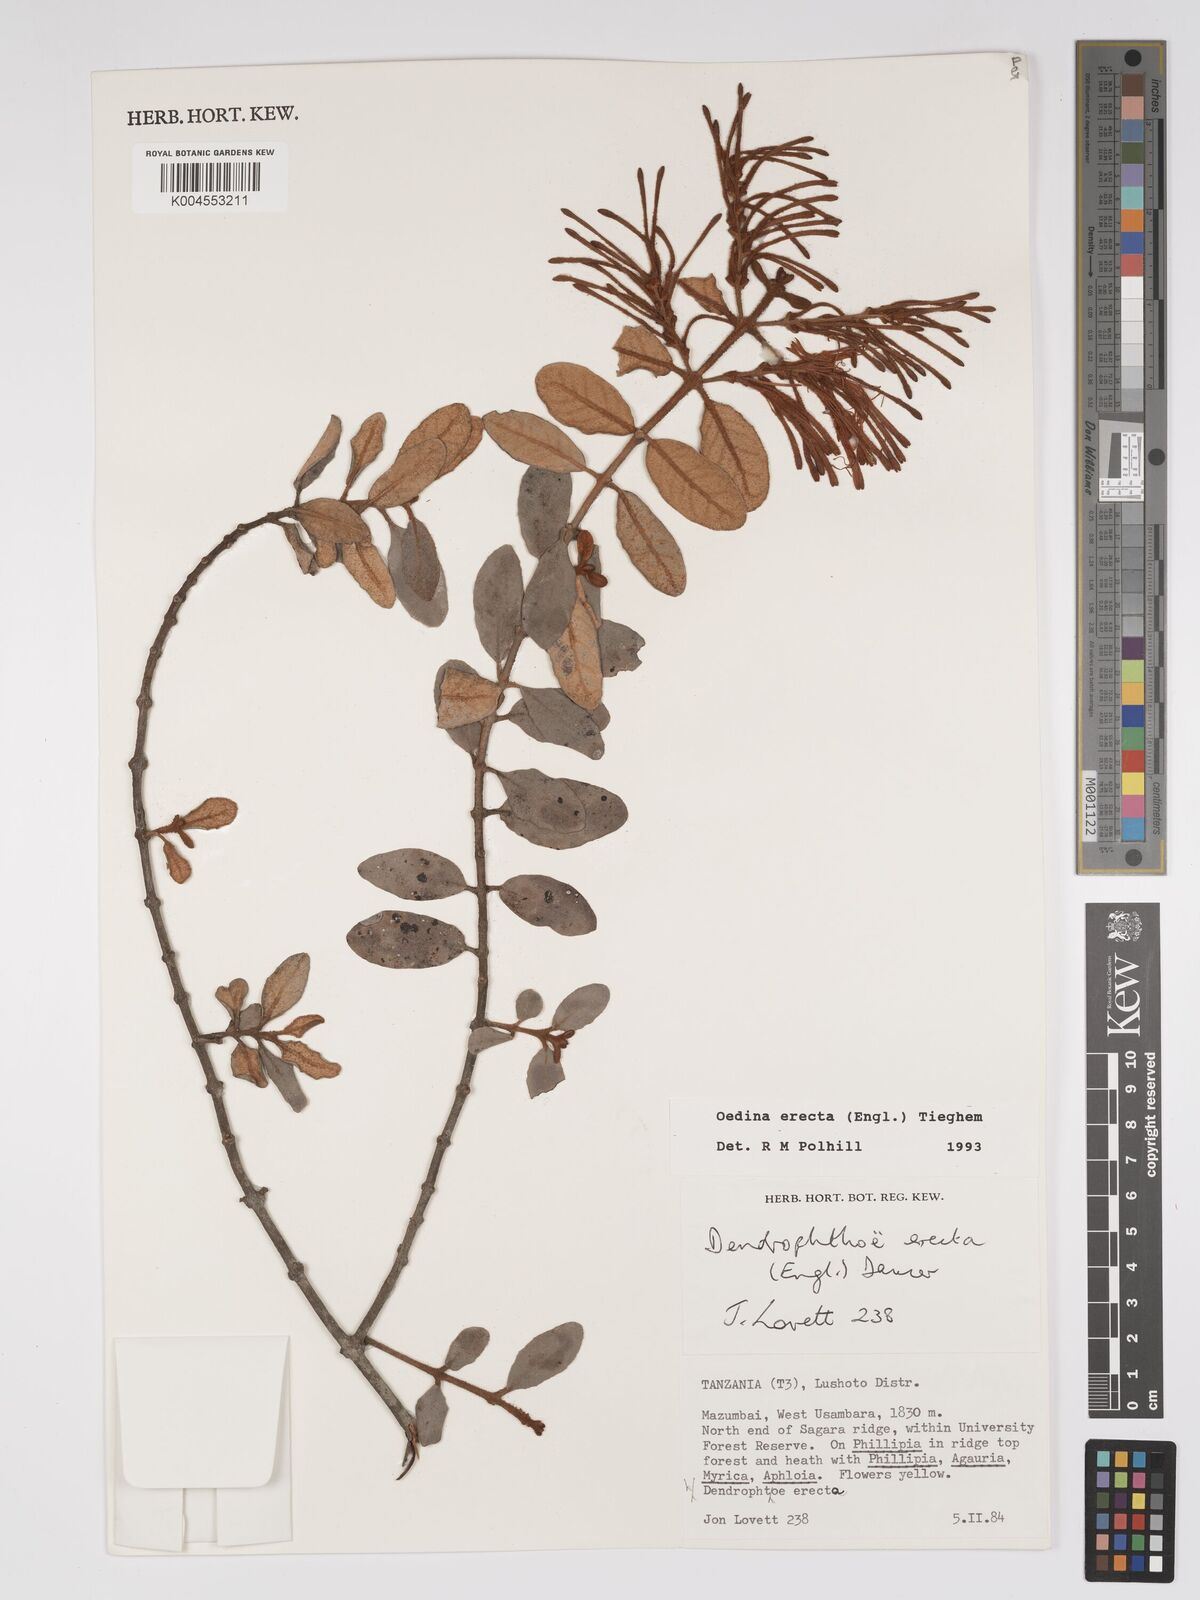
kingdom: Plantae
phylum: Tracheophyta
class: Magnoliopsida
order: Santalales
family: Loranthaceae
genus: Oedina
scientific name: Oedina erecta
